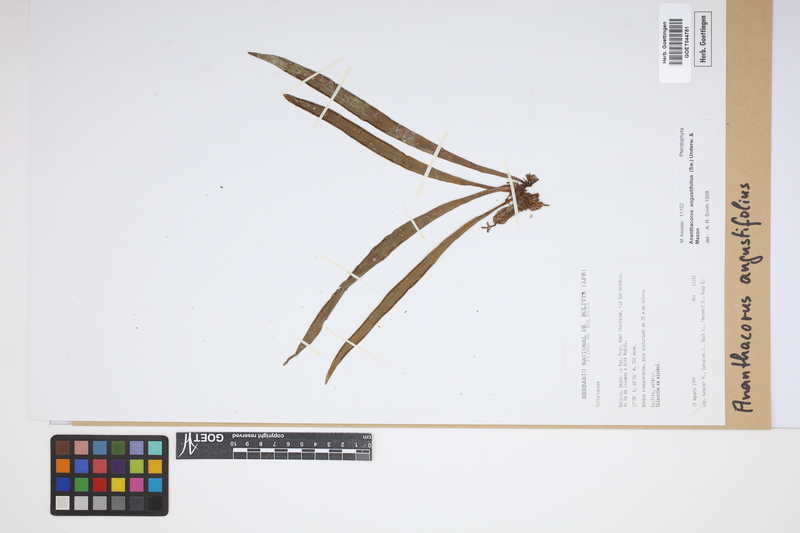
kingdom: Plantae
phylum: Tracheophyta
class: Polypodiopsida
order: Polypodiales
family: Pteridaceae
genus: Ananthacorus
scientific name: Ananthacorus angustifolius
